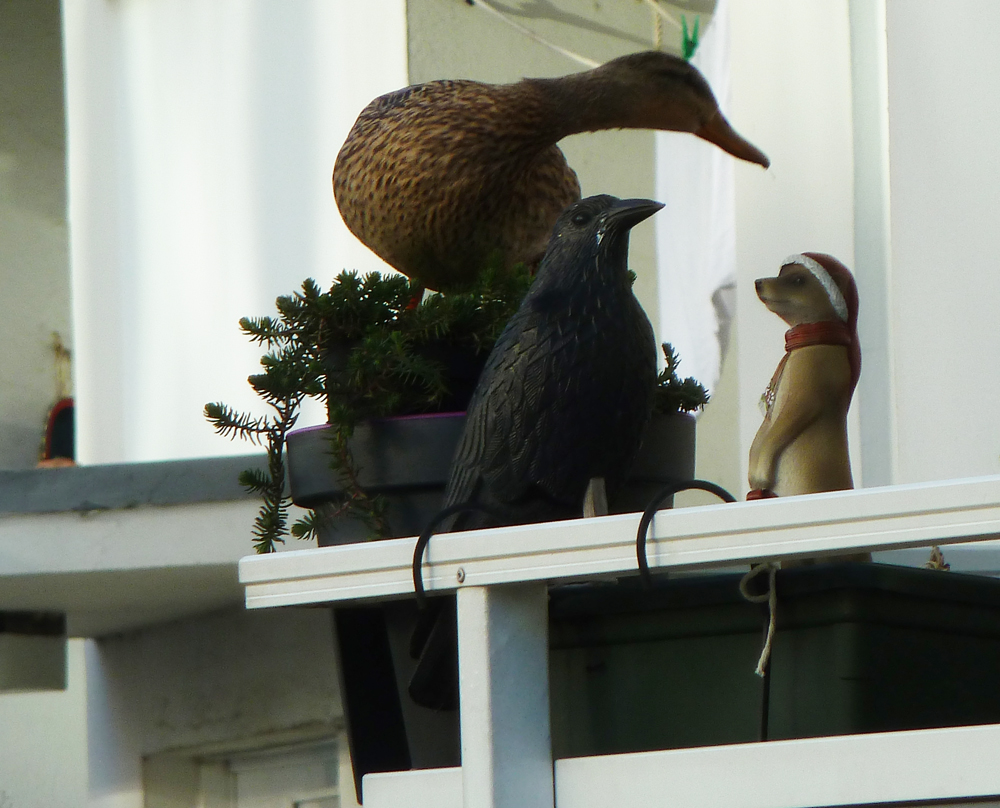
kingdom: Animalia
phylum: Chordata
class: Aves
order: Anseriformes
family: Anatidae
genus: Anas
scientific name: Anas platyrhynchos
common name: Mallard
